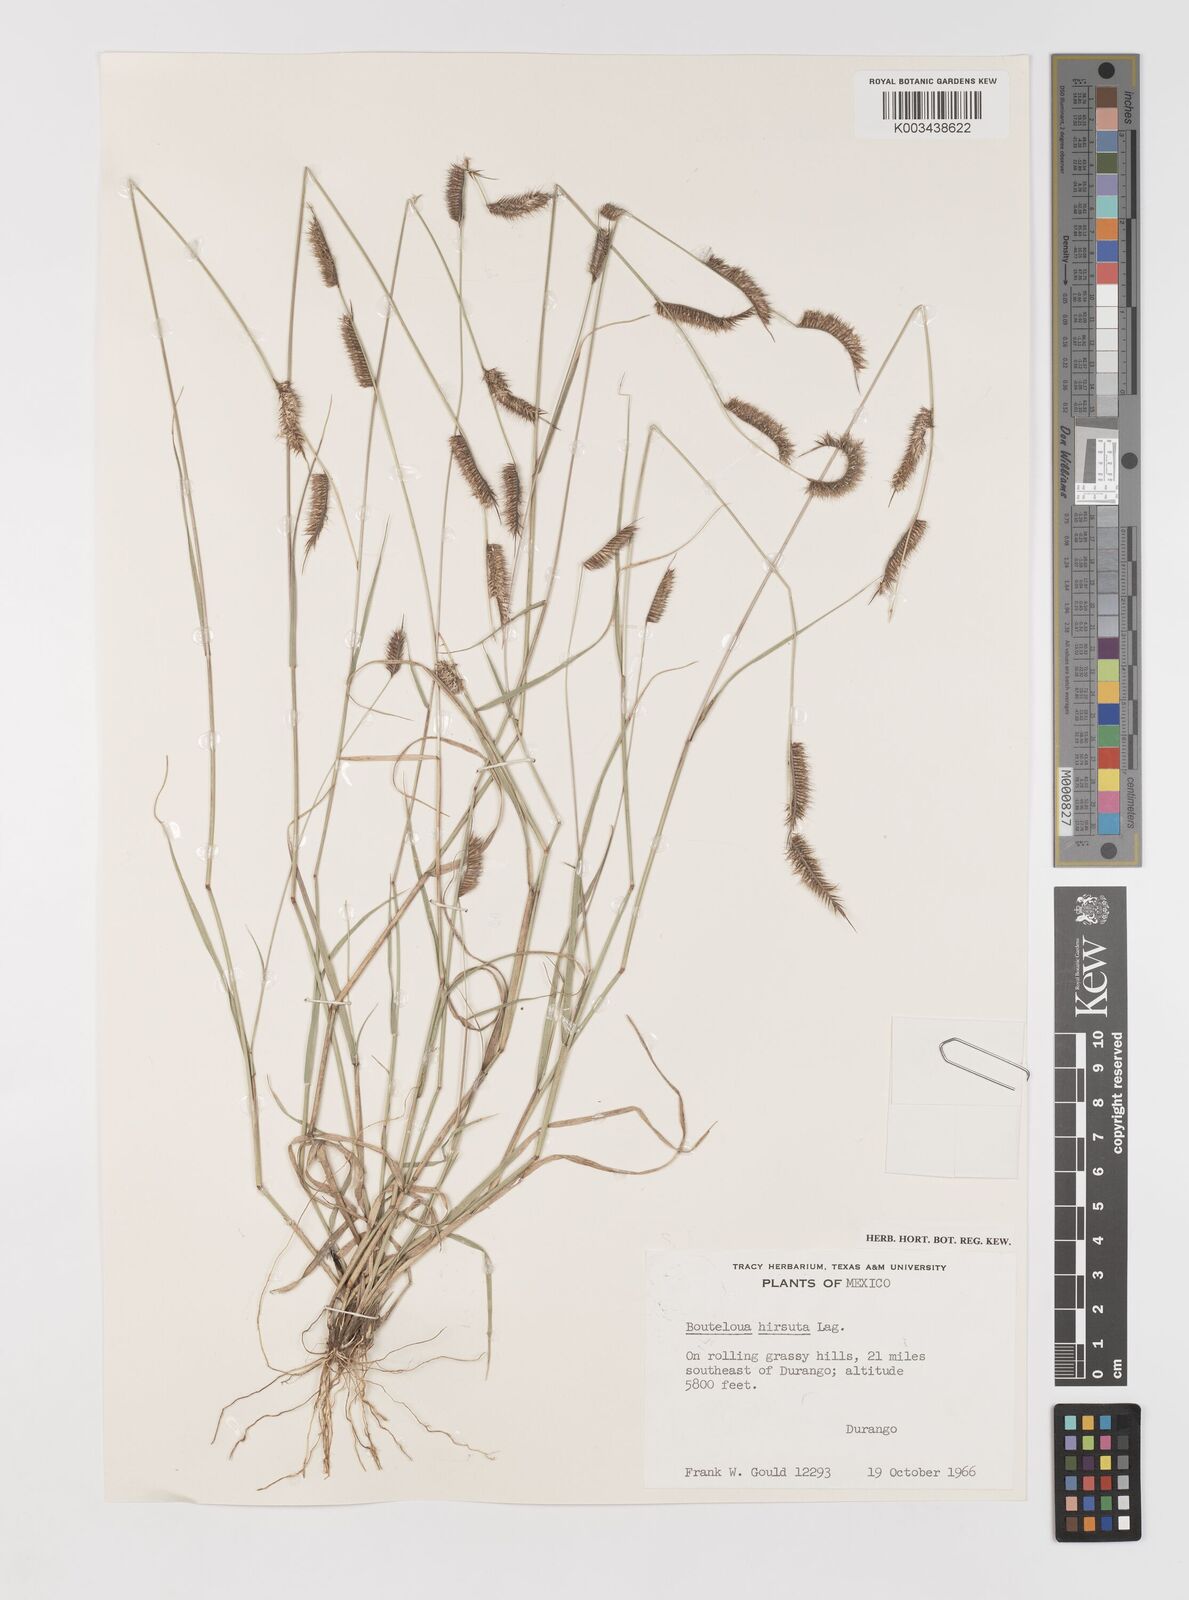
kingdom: Plantae
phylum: Tracheophyta
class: Liliopsida
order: Poales
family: Poaceae
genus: Bouteloua
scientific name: Bouteloua hirsuta
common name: Hairy grama
